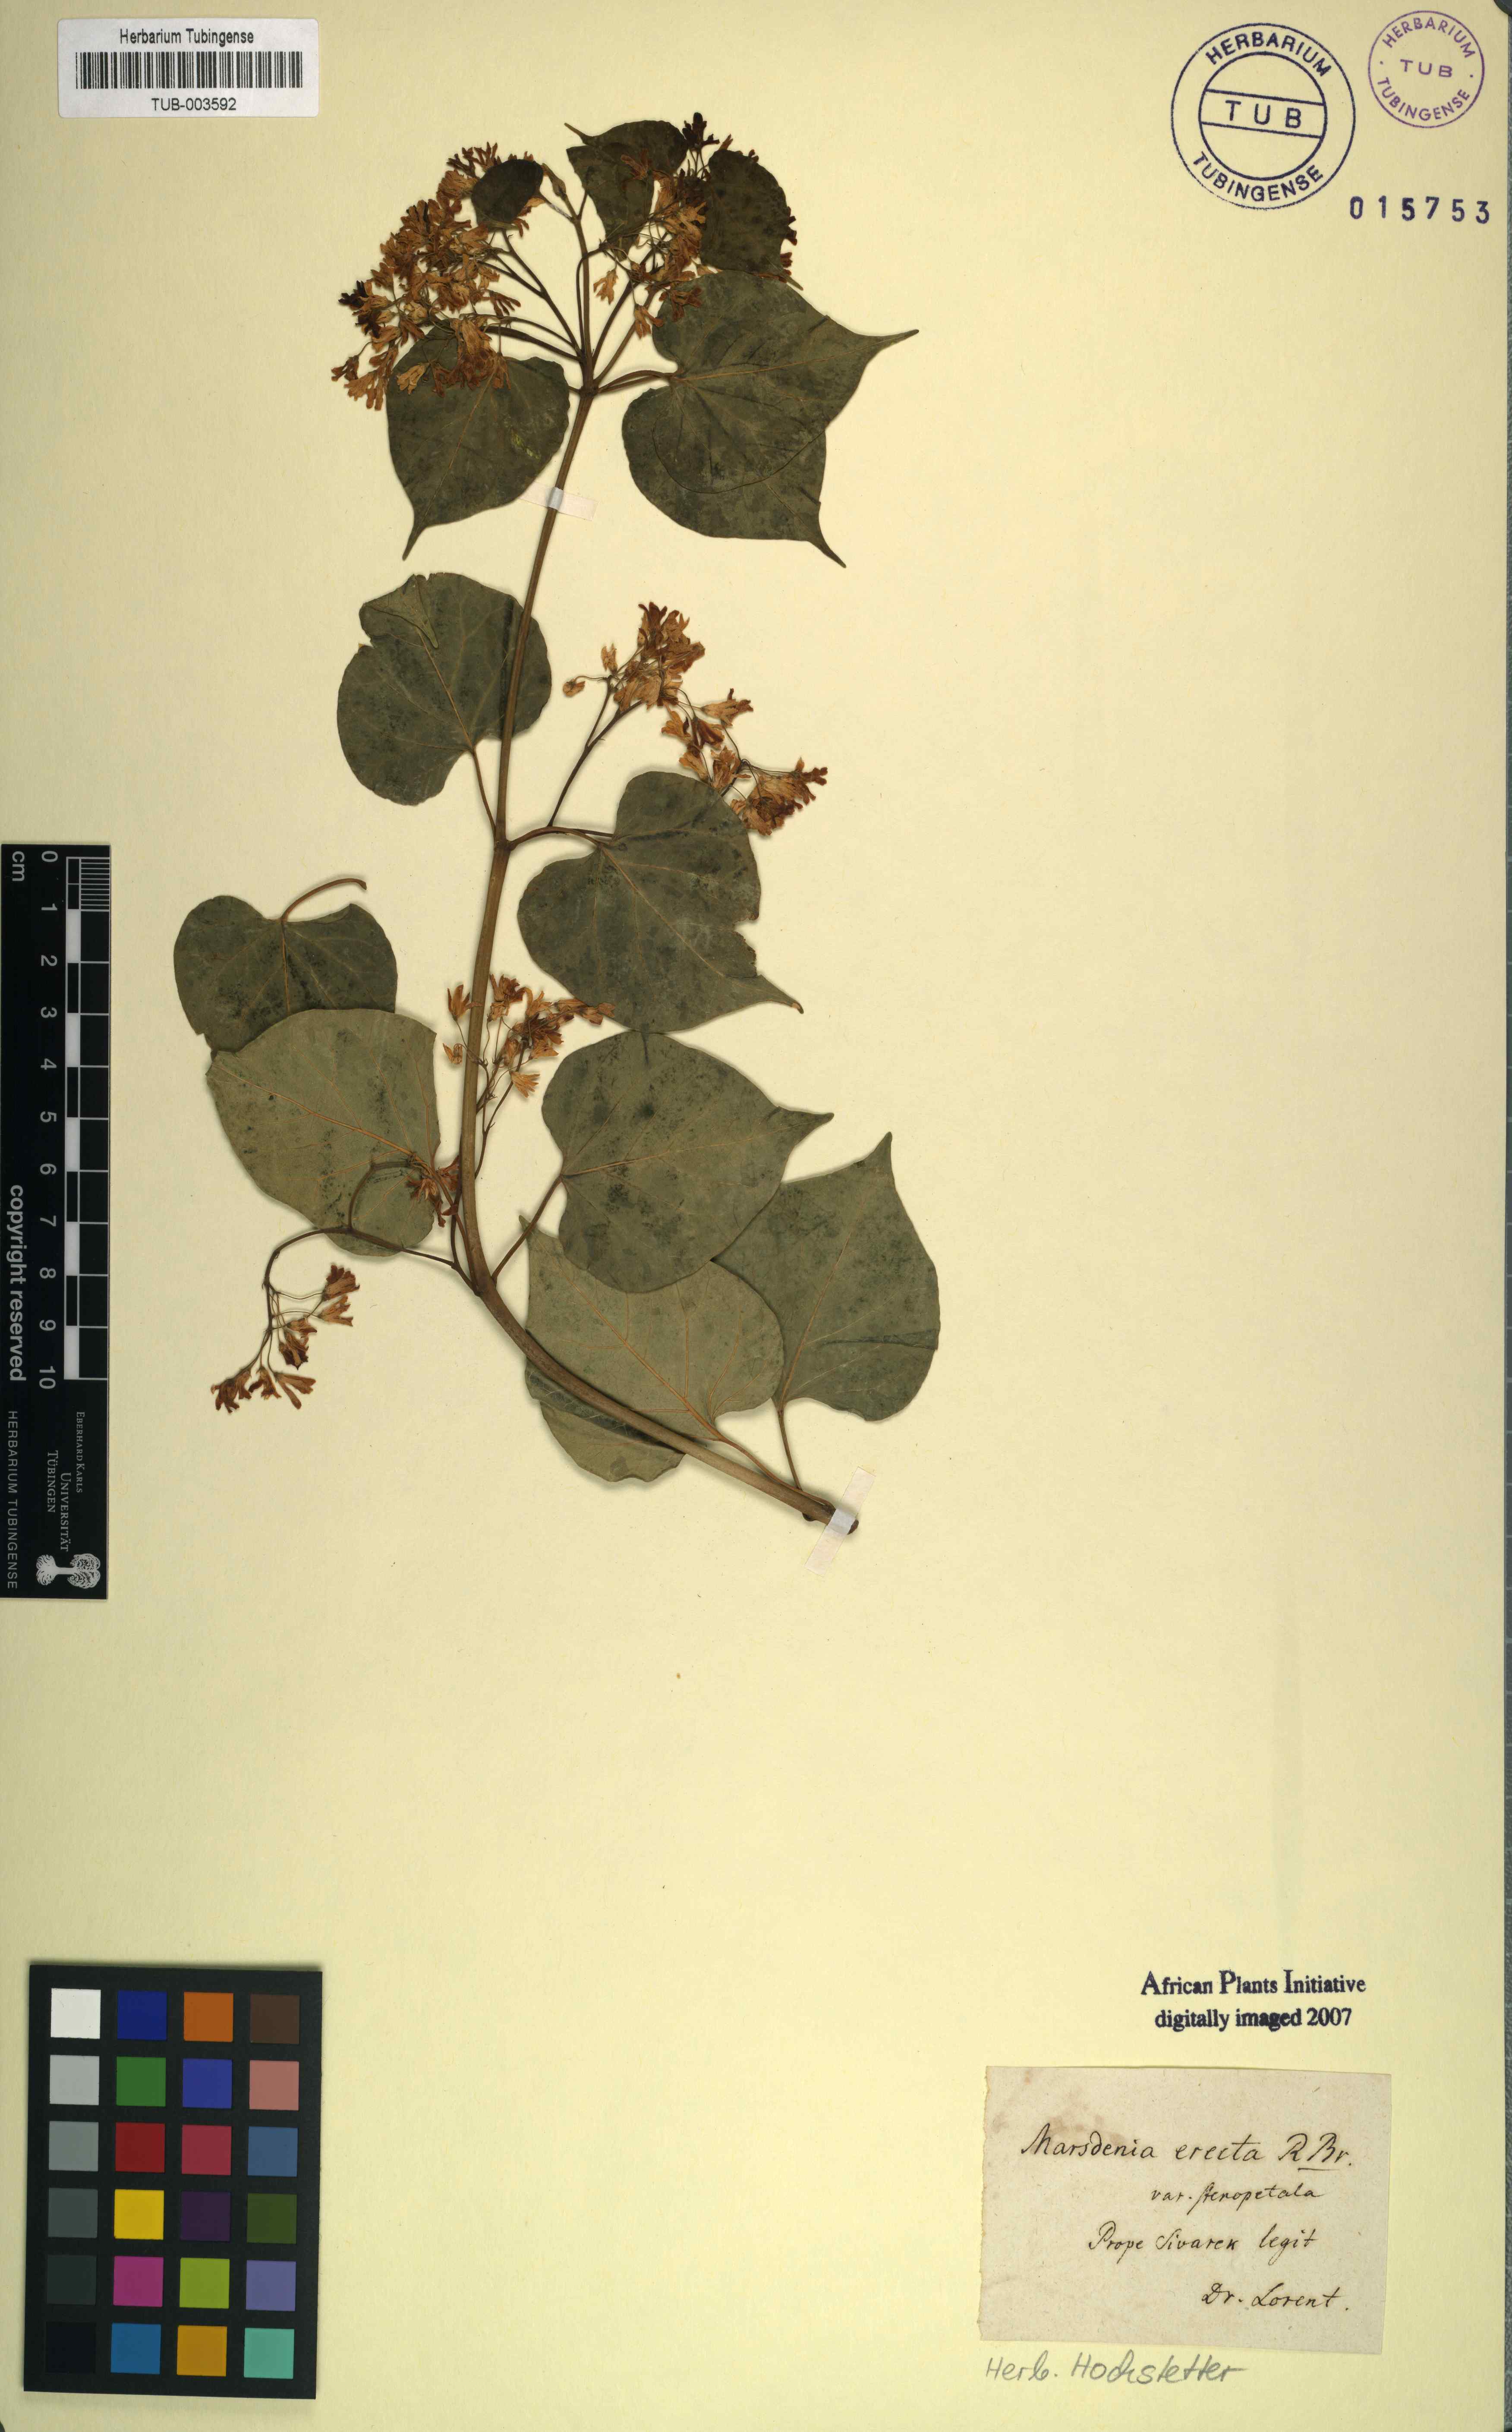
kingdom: Plantae
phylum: Tracheophyta
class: Magnoliopsida
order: Gentianales
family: Apocynaceae
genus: Cionura
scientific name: Cionura erecta
